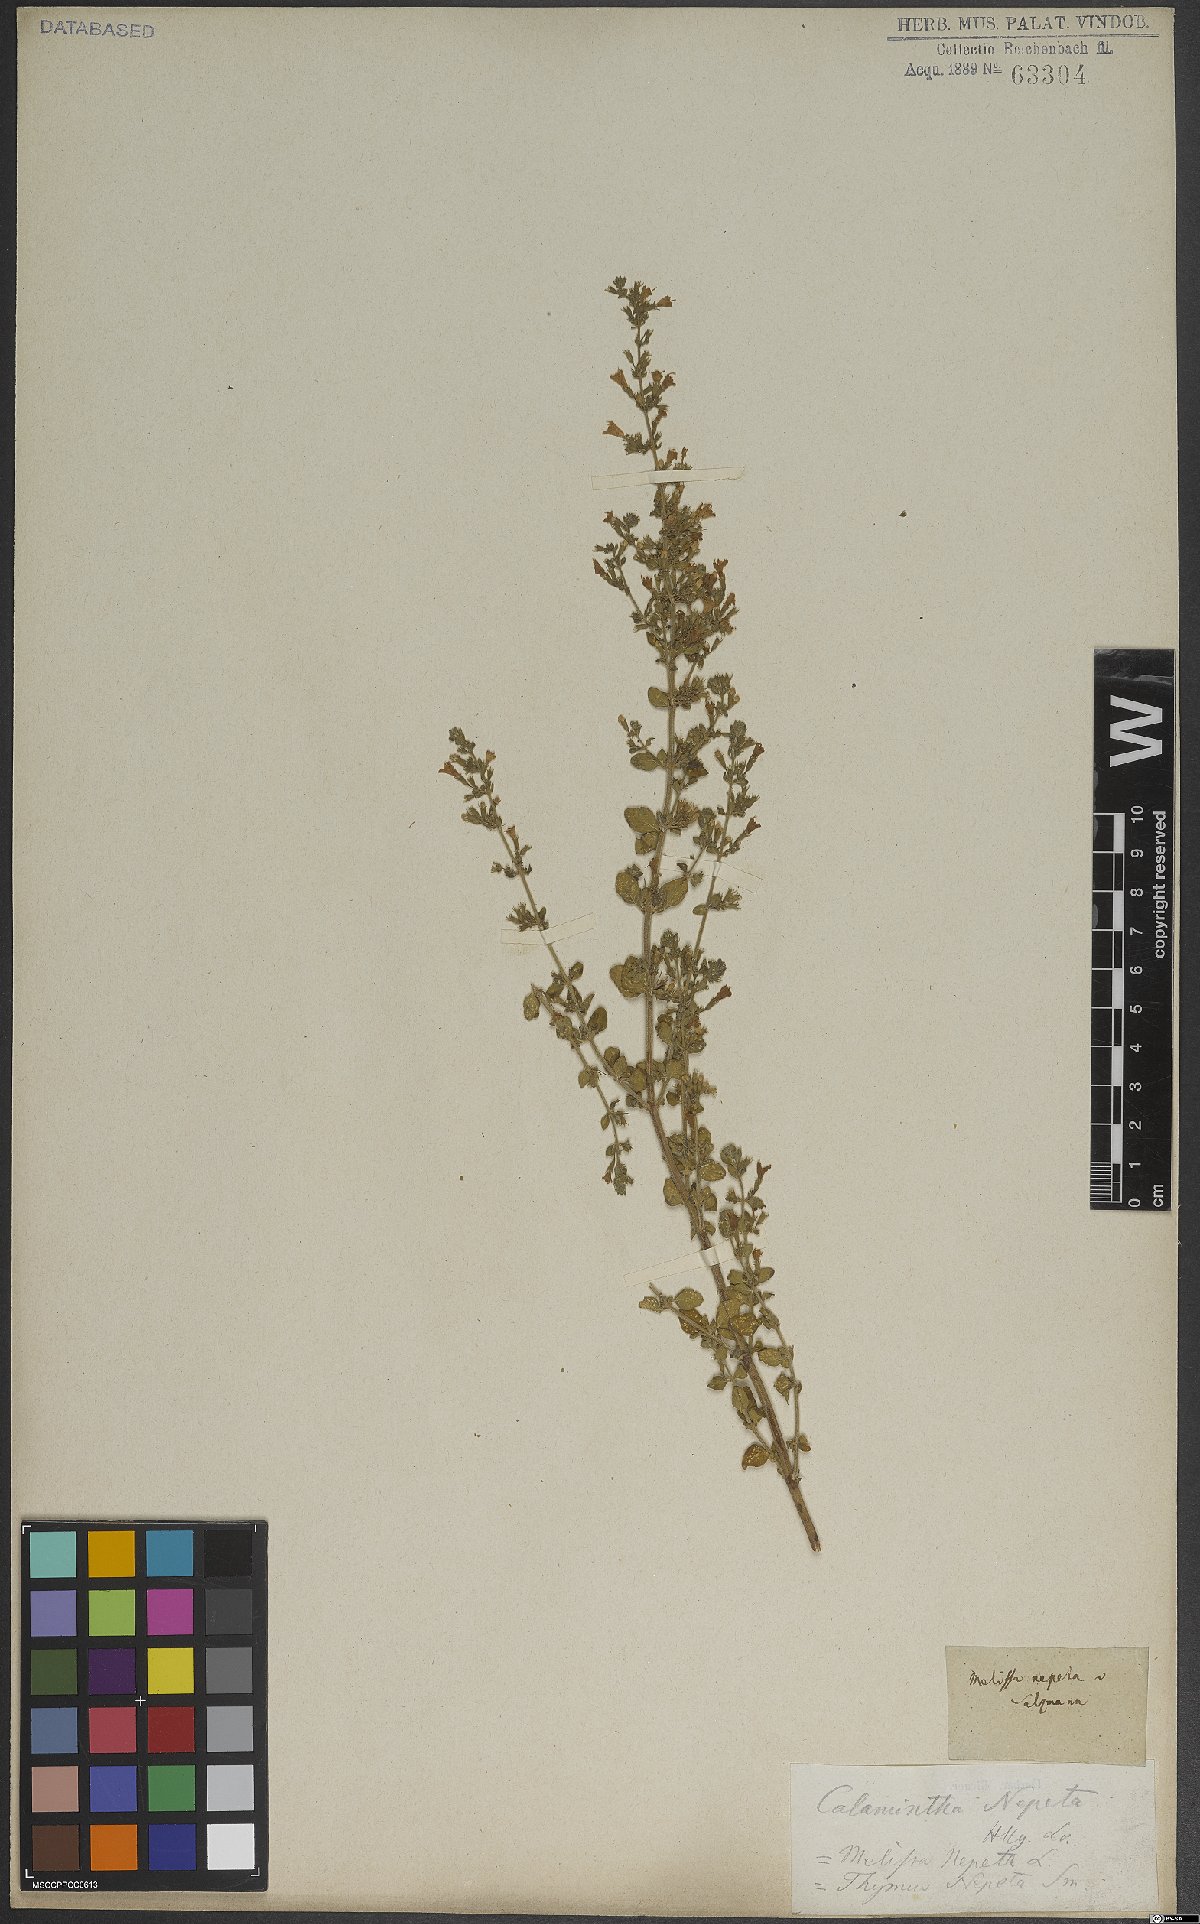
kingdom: Plantae
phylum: Tracheophyta
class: Magnoliopsida
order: Lamiales
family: Lamiaceae
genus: Clinopodium
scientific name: Clinopodium nepeta
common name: Lesser calamint
